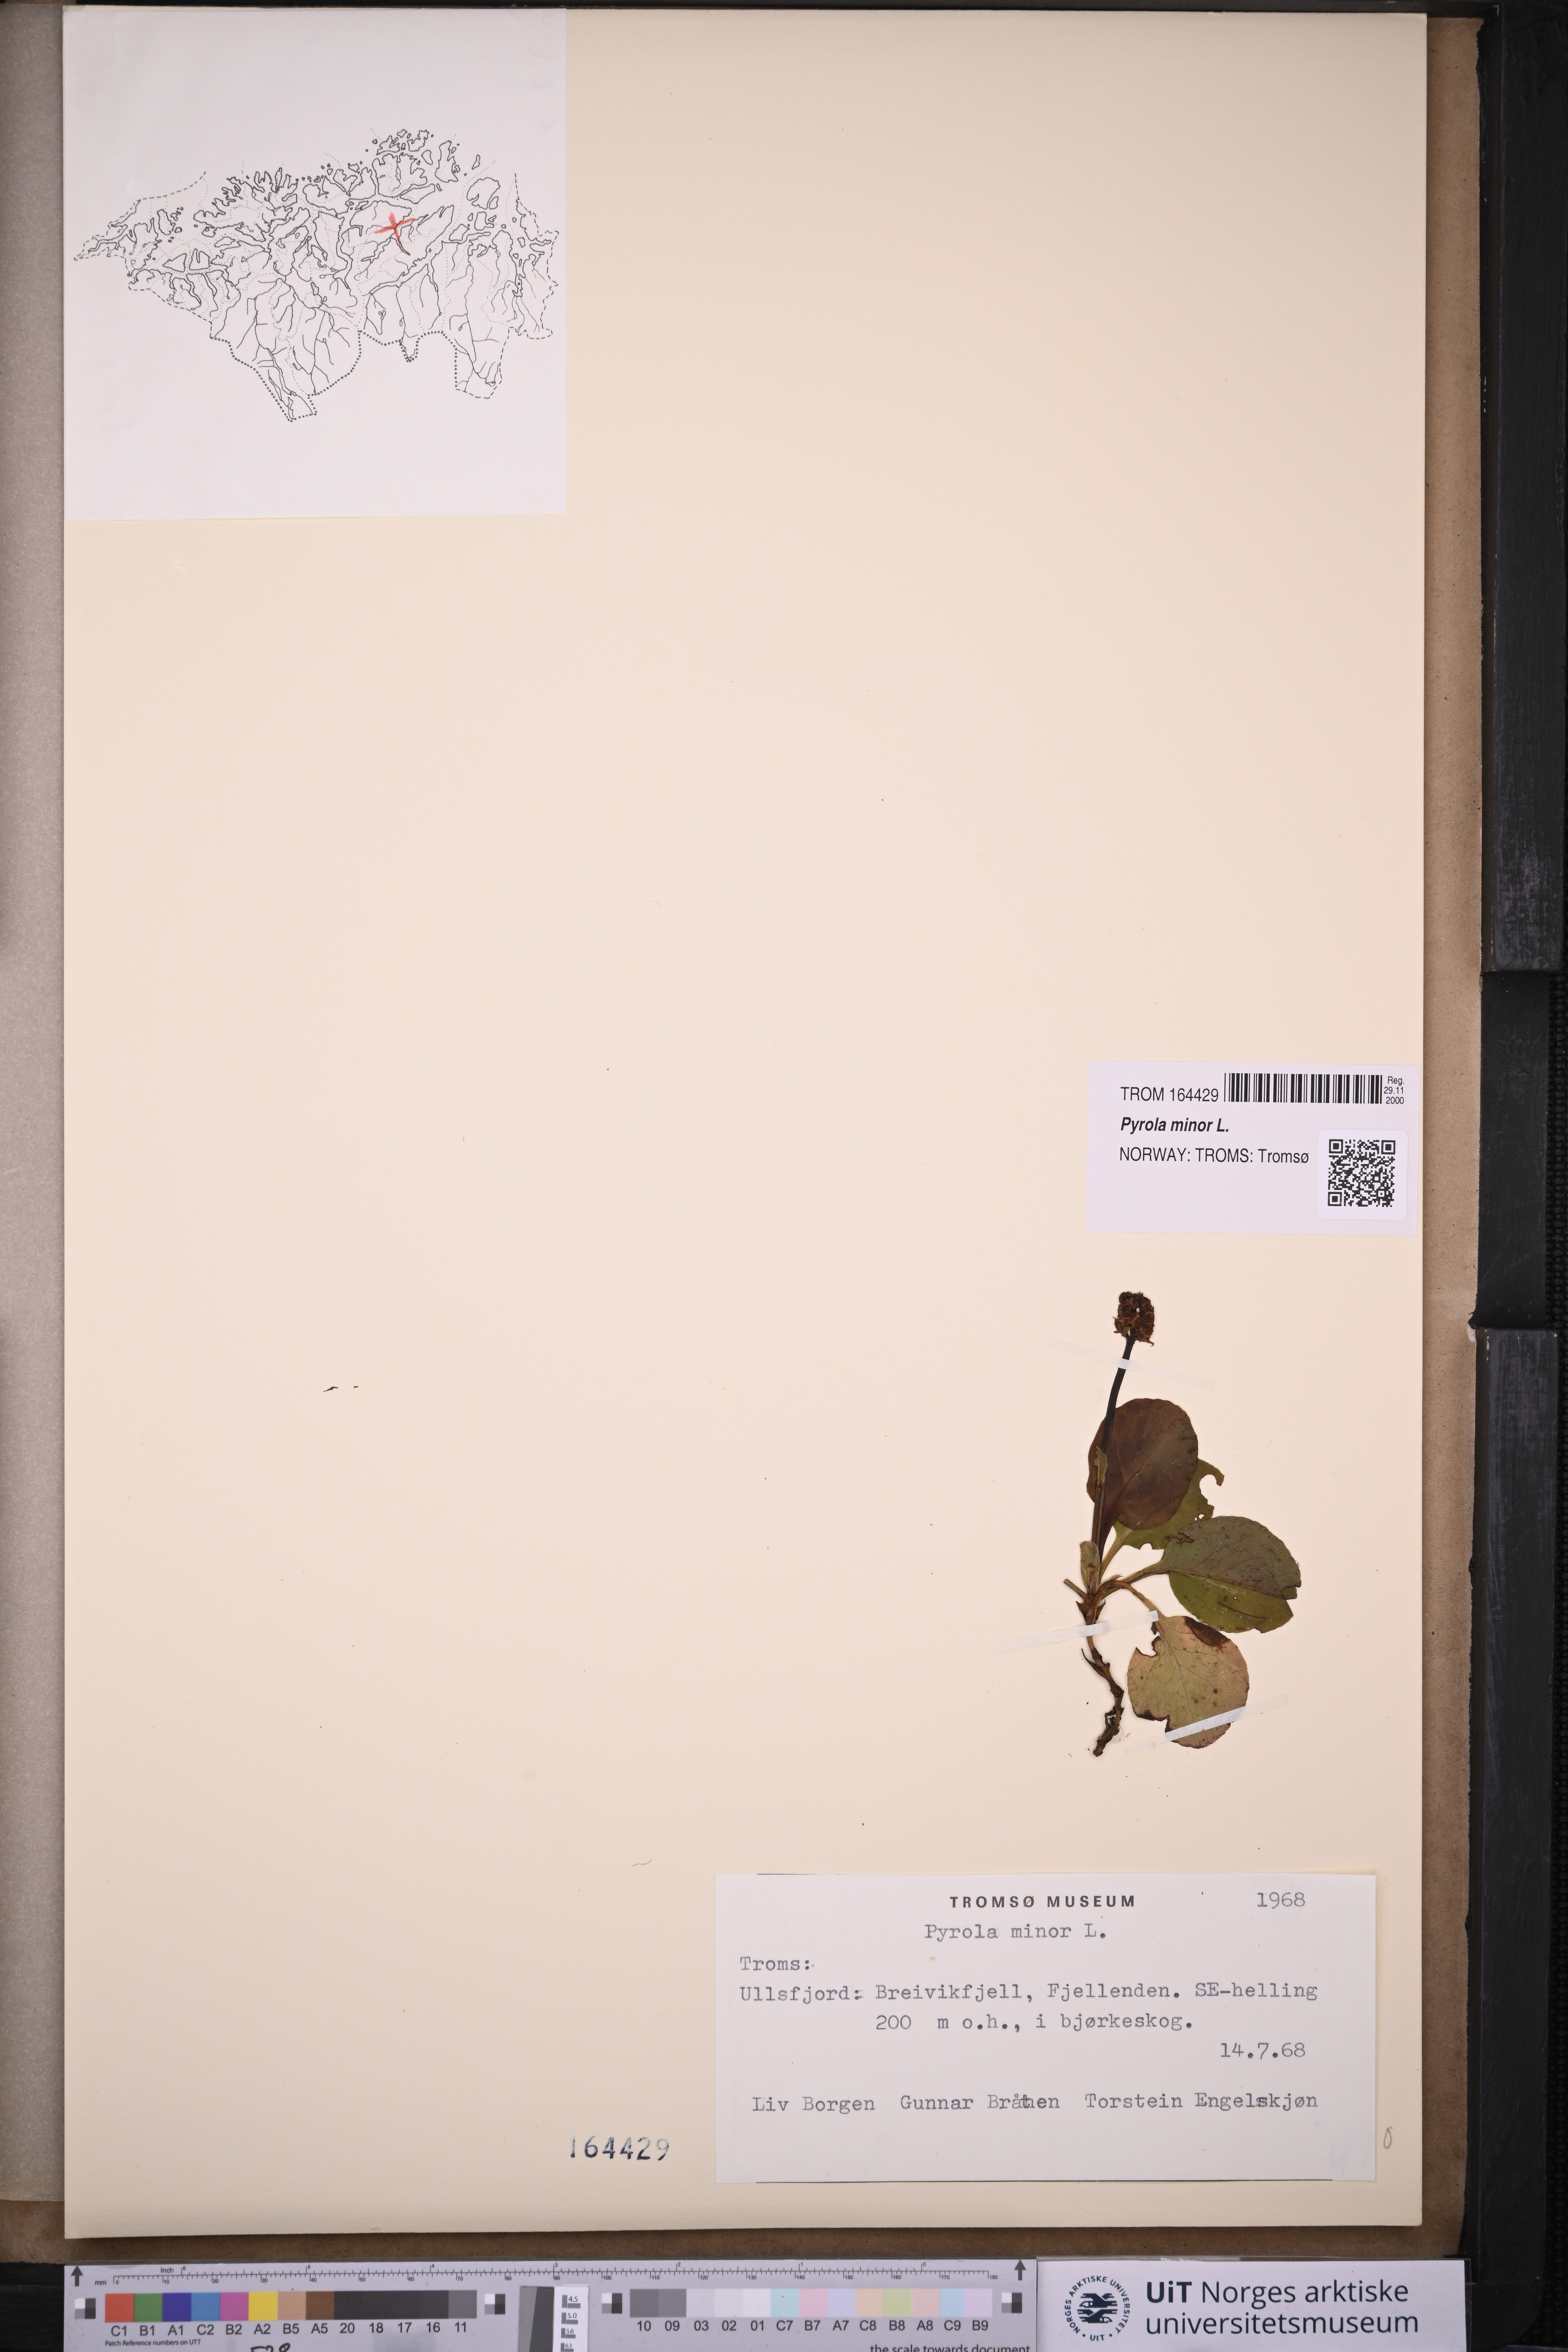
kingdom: Plantae
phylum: Tracheophyta
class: Magnoliopsida
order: Ericales
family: Ericaceae
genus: Pyrola
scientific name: Pyrola minor
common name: Common wintergreen
